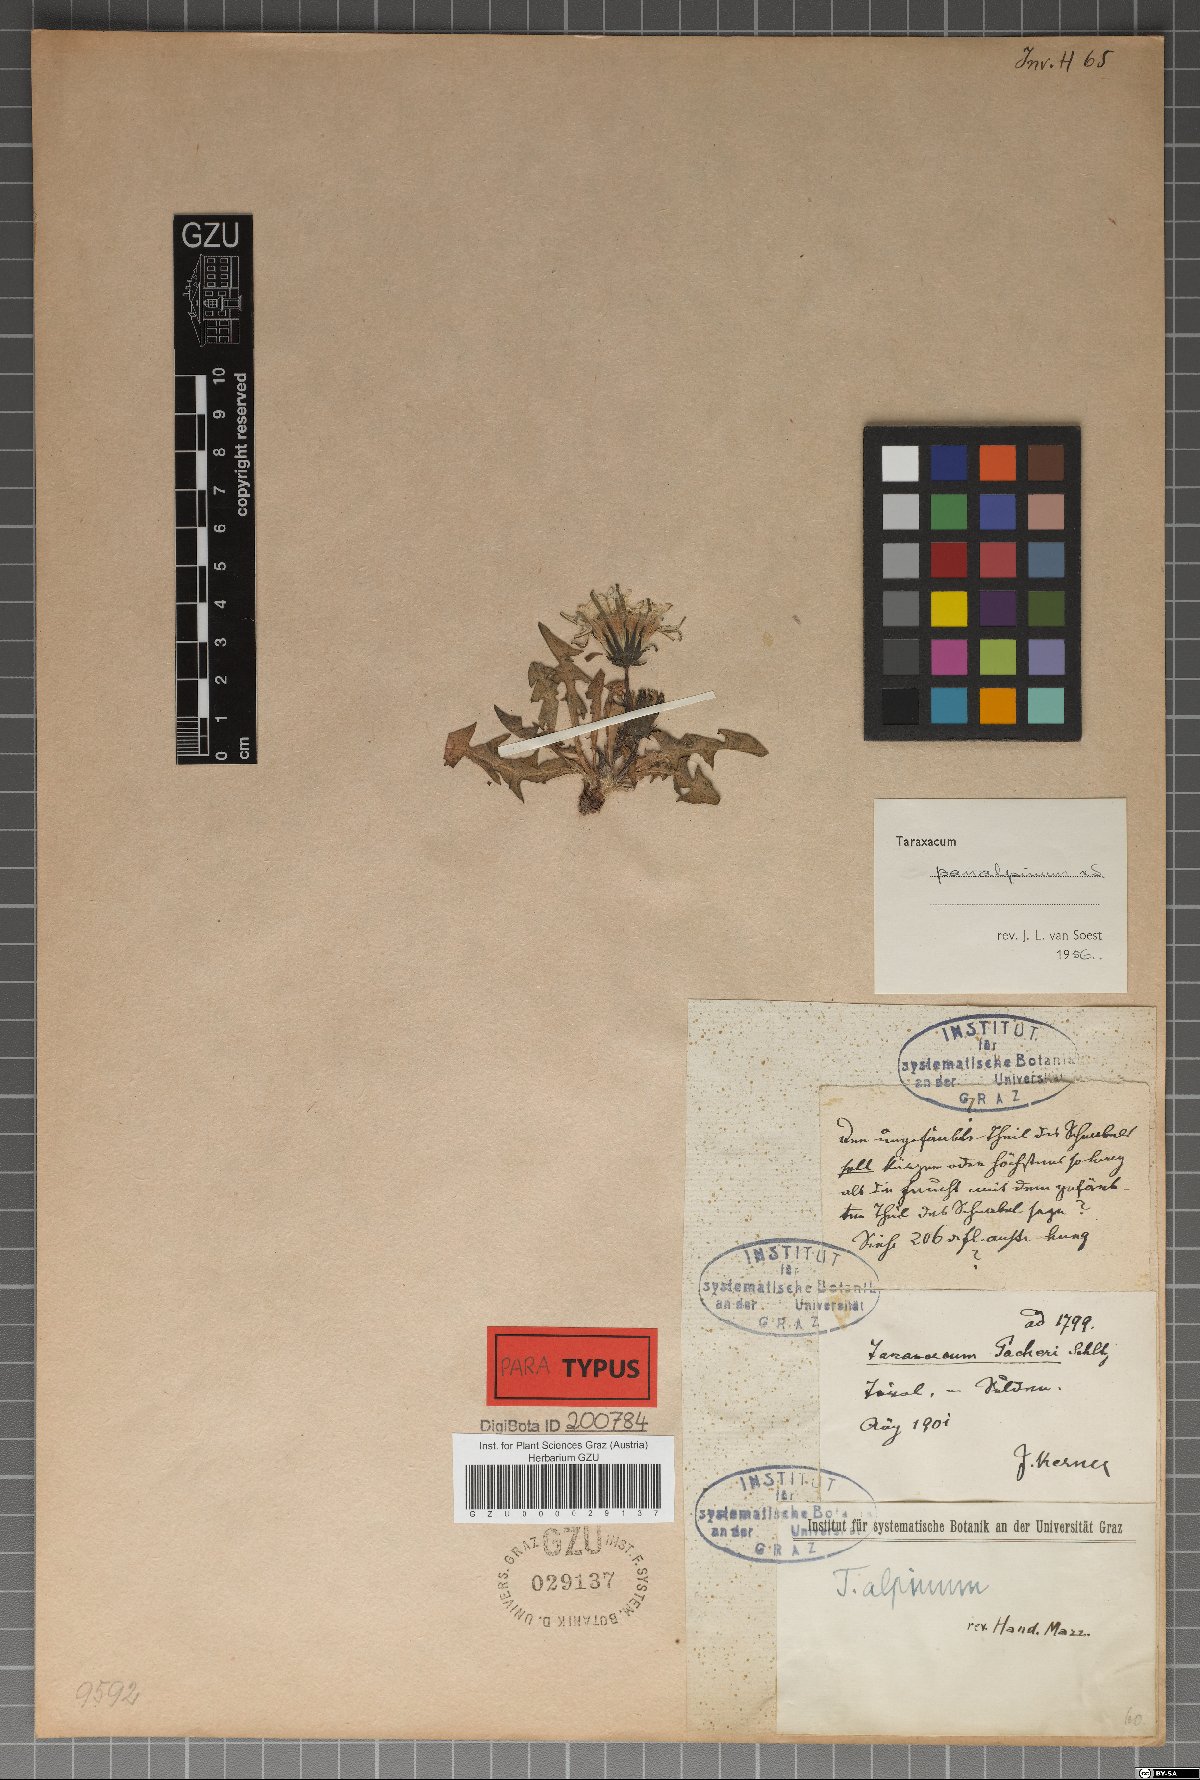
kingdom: Plantae
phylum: Tracheophyta
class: Magnoliopsida
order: Asterales
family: Asteraceae
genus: Taraxacum
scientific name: Taraxacum panalpinum
